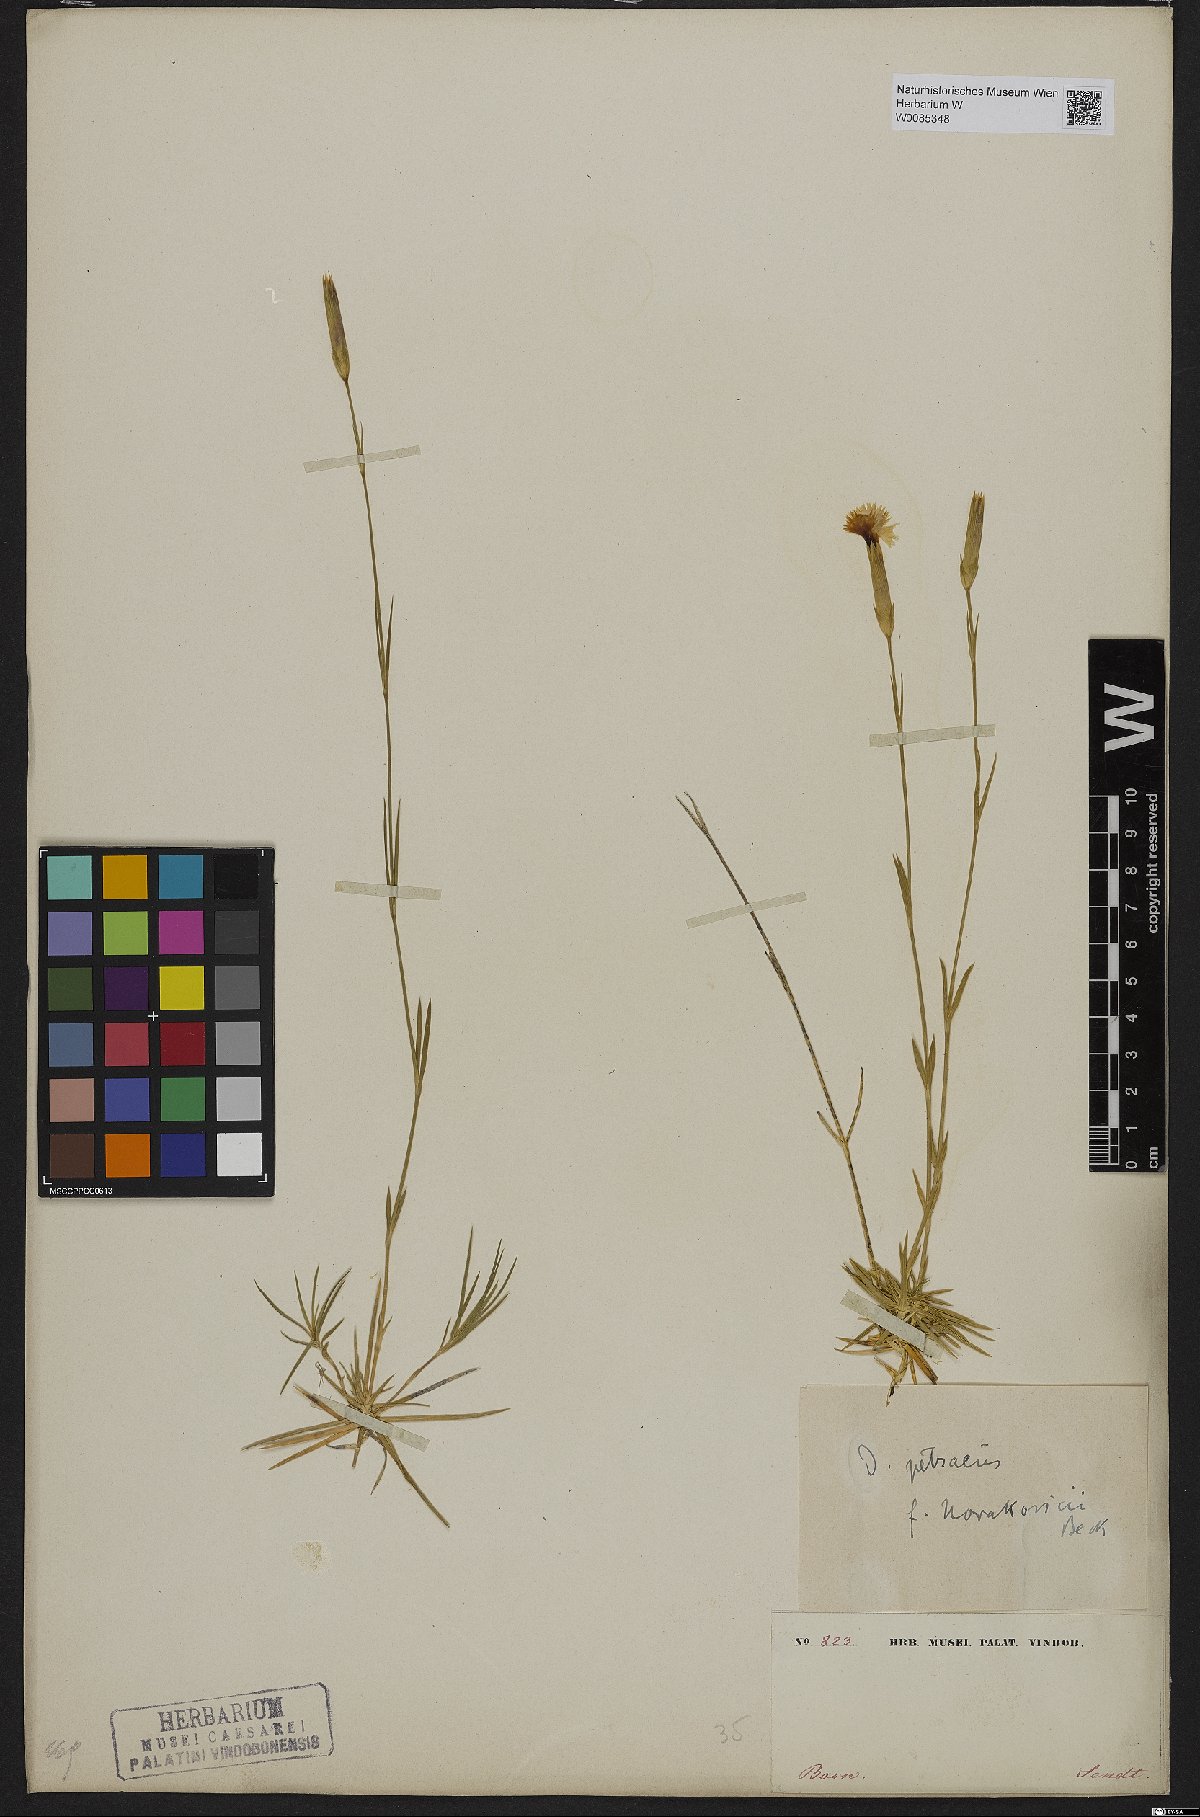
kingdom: Plantae
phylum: Tracheophyta
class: Magnoliopsida
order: Caryophyllales
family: Caryophyllaceae
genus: Dianthus
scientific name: Dianthus petraeus
